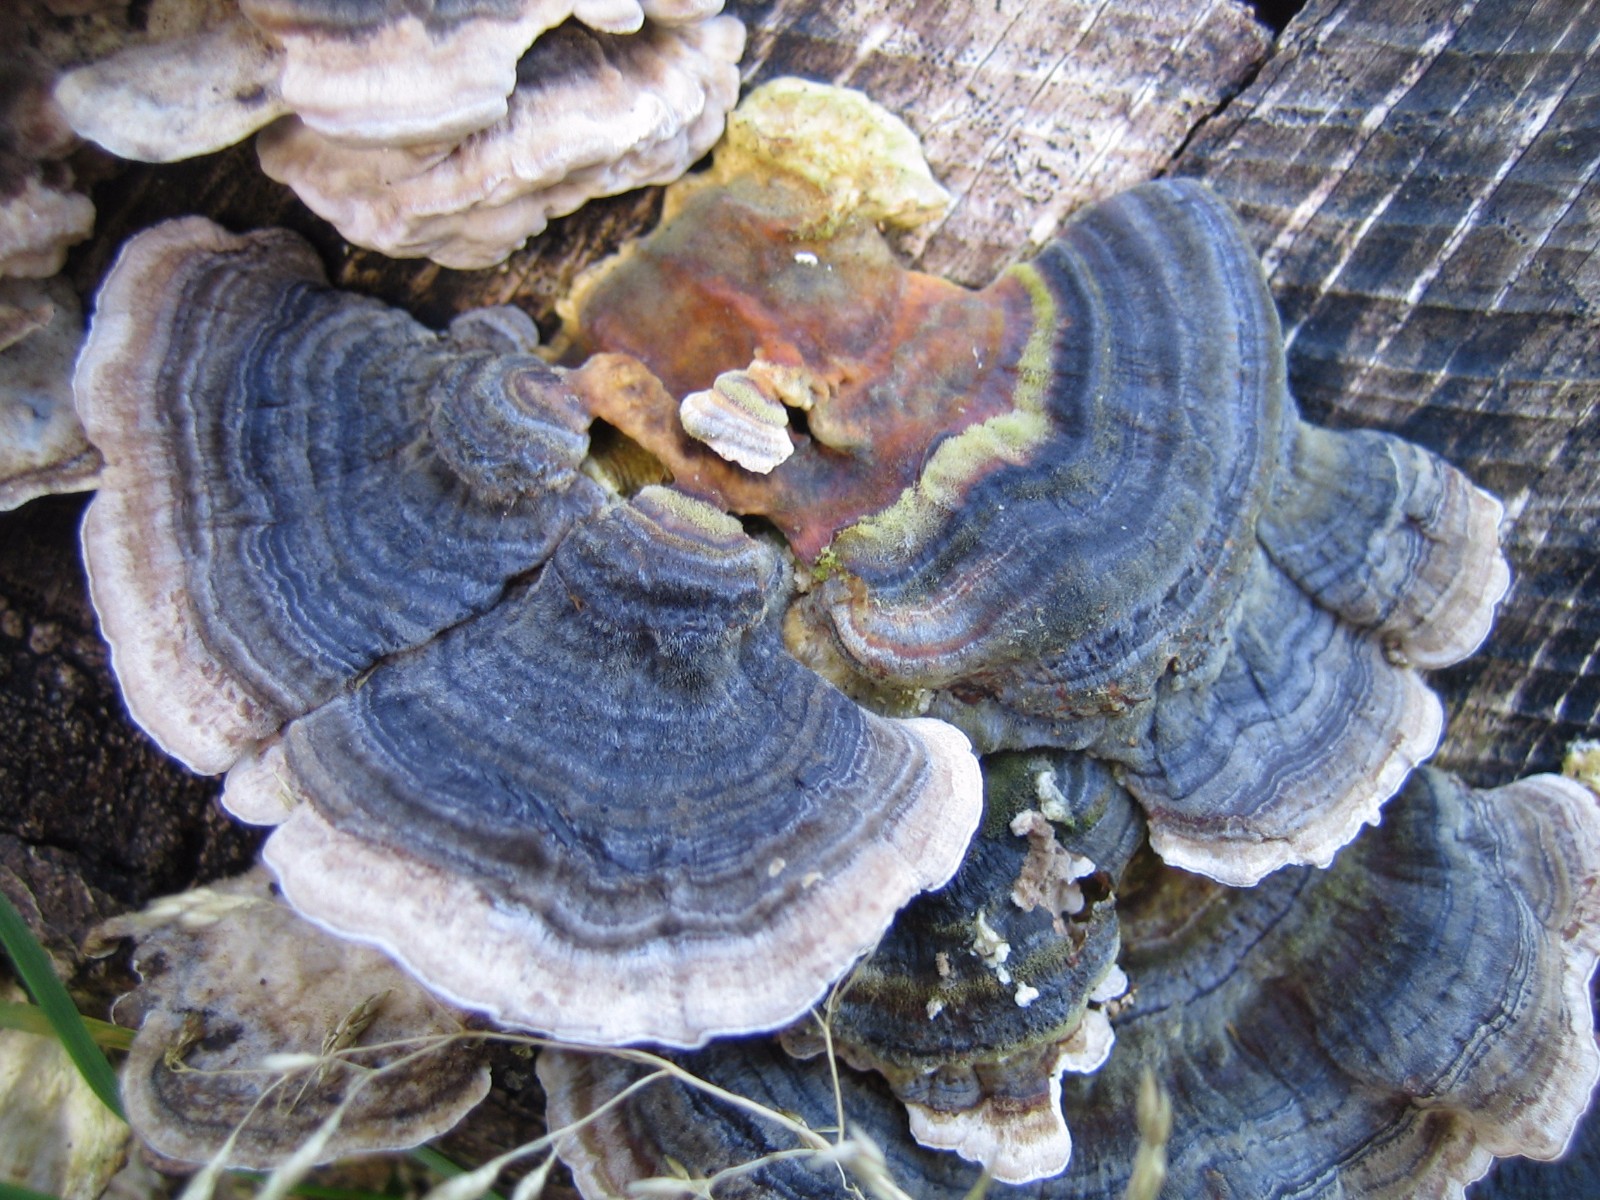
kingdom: Fungi
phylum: Basidiomycota
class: Agaricomycetes
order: Polyporales
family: Polyporaceae
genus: Trametes
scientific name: Trametes versicolor
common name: broget læderporesvamp
